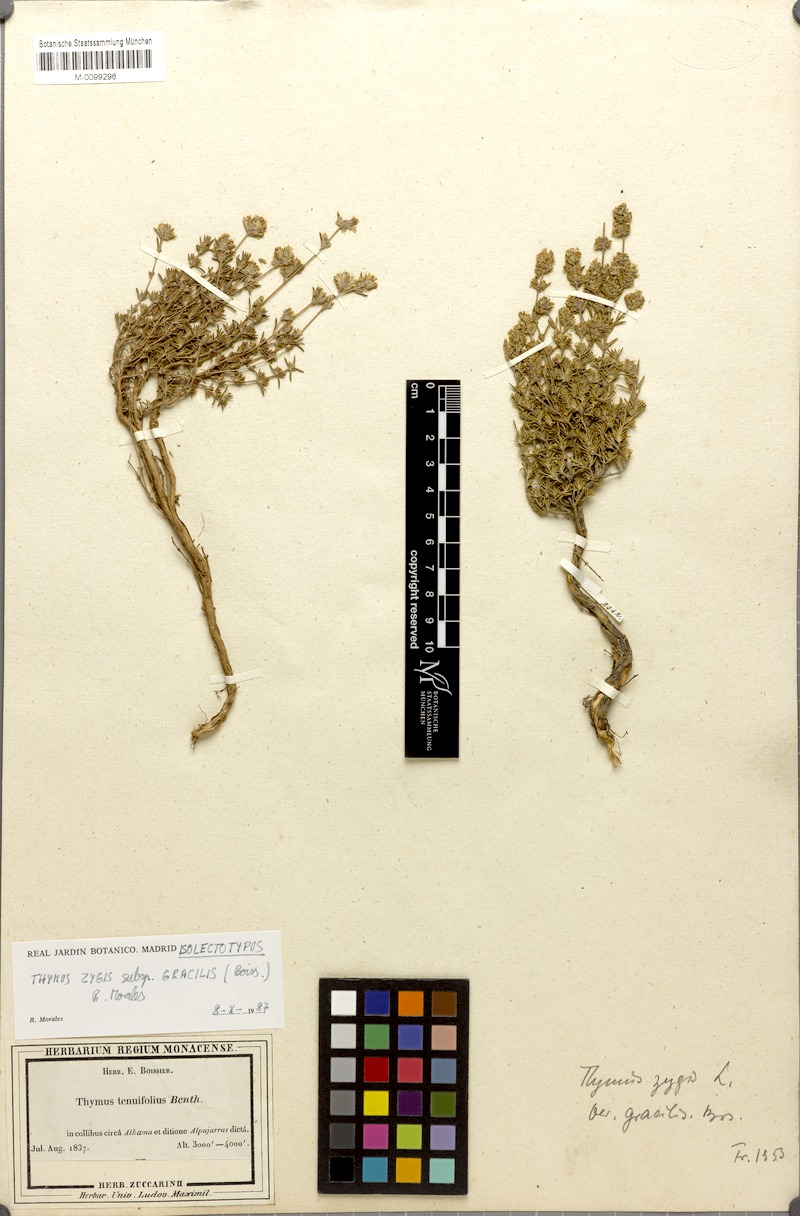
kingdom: Plantae
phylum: Tracheophyta
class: Magnoliopsida
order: Lamiales
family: Lamiaceae
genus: Thymus
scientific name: Thymus zygis
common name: White thyme
